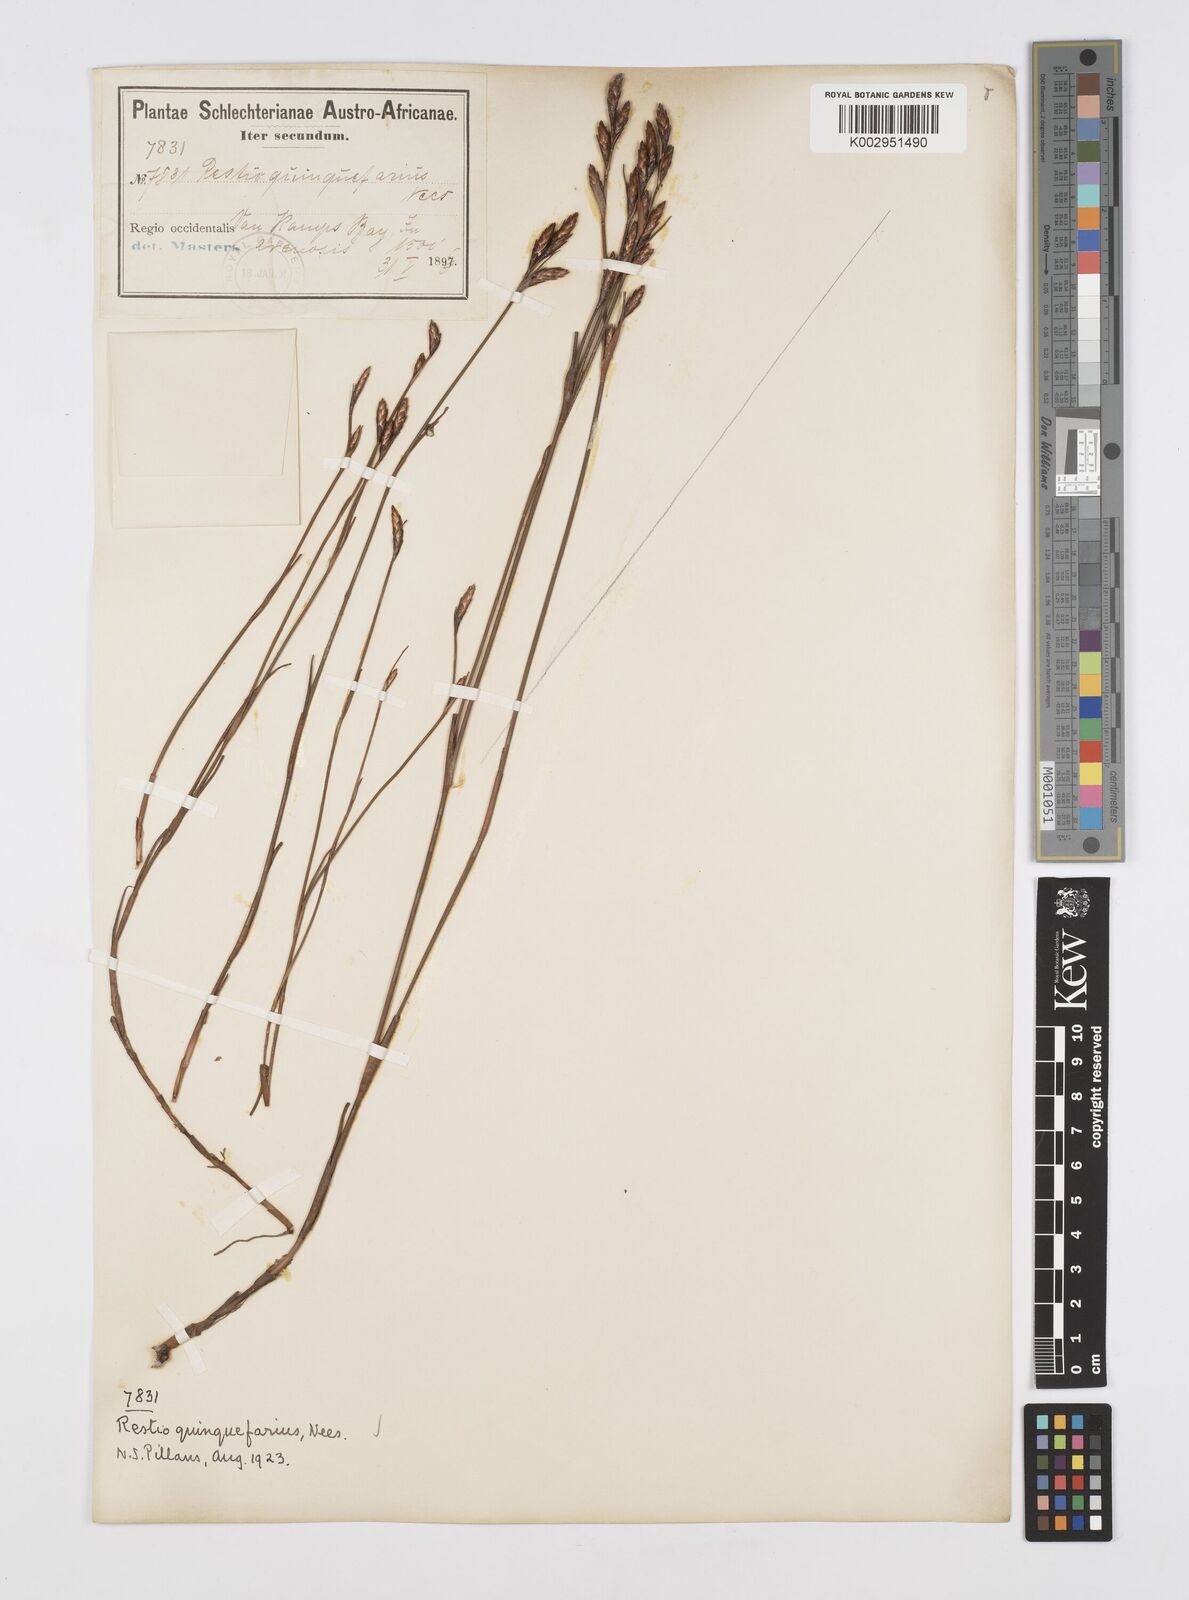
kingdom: Plantae
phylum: Tracheophyta
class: Liliopsida
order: Poales
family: Restionaceae
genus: Restio
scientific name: Restio quinquefarius
